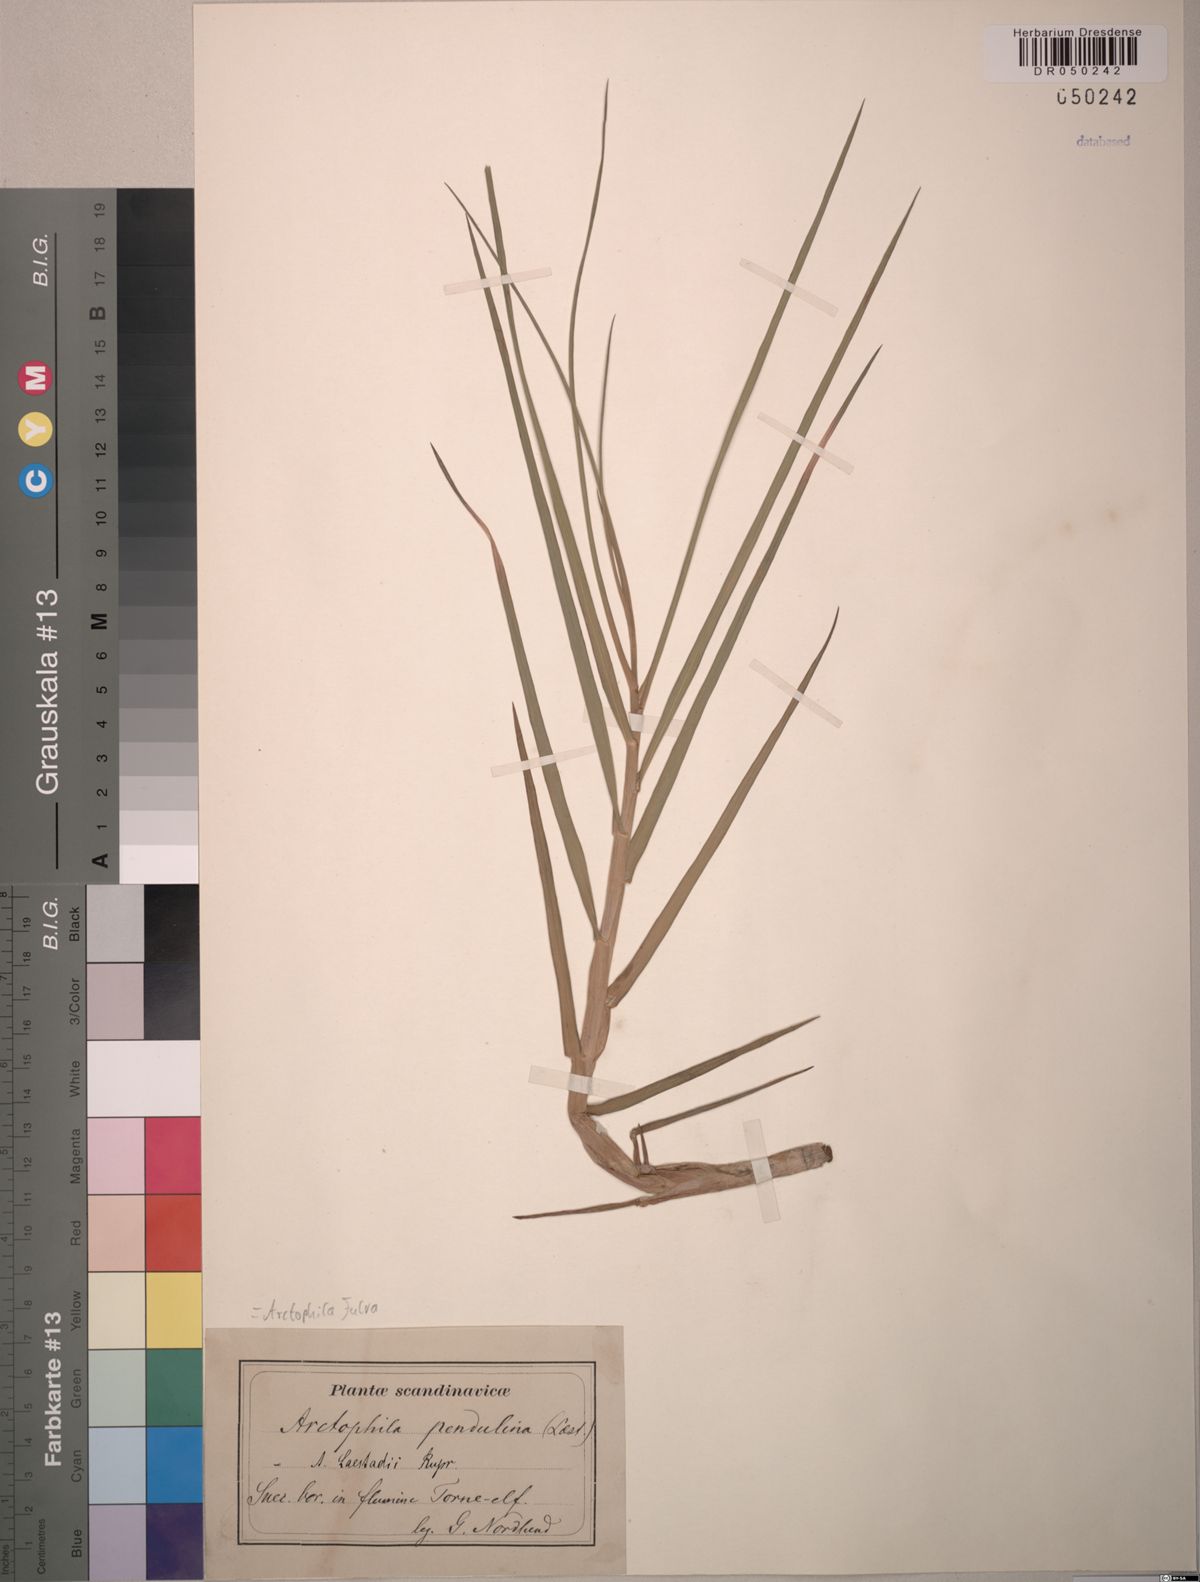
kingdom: Plantae
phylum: Tracheophyta
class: Liliopsida
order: Poales
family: Poaceae
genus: Dupontia
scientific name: Dupontia fulva
